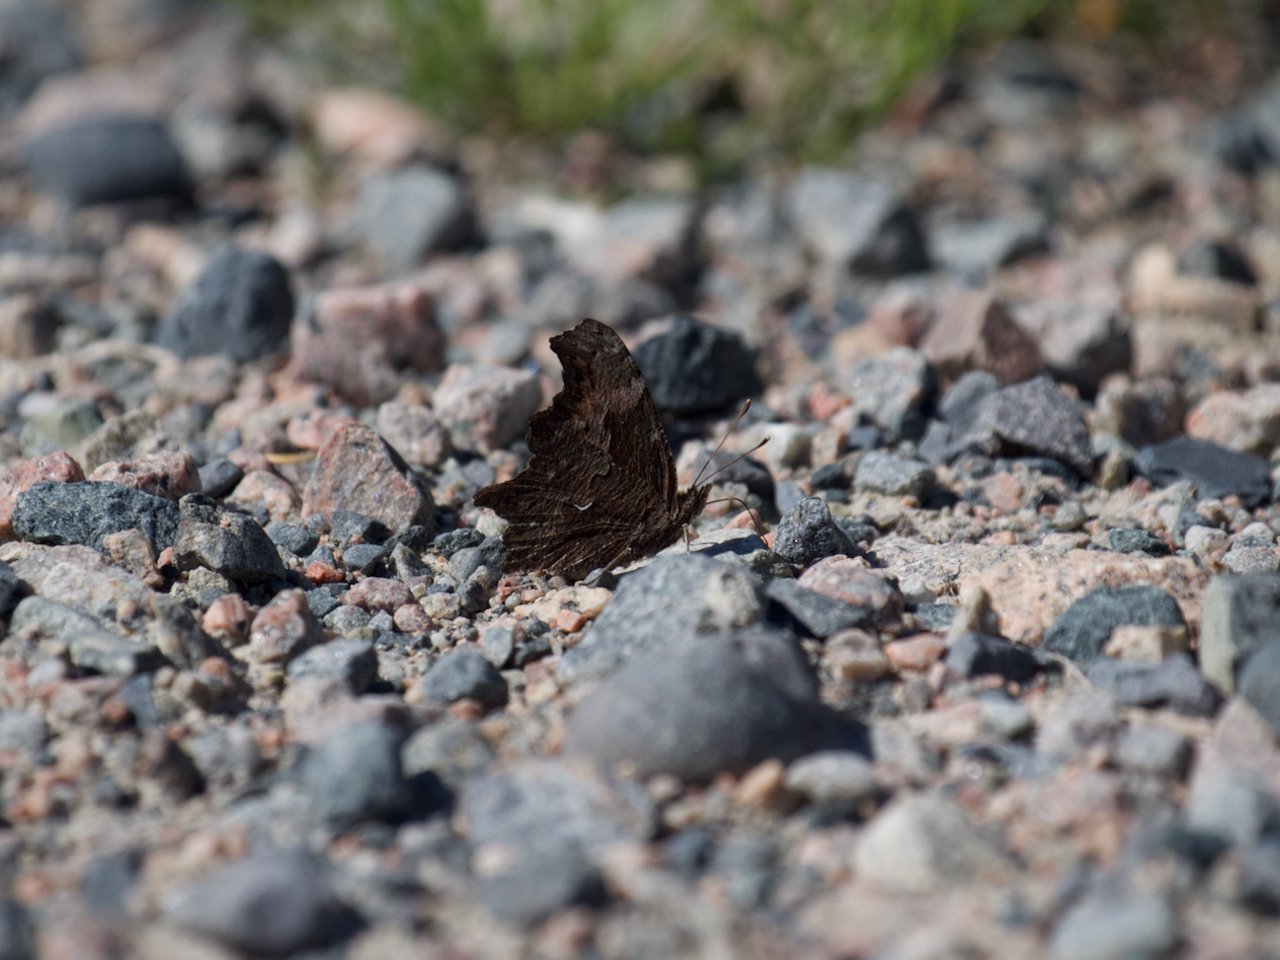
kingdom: Animalia
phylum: Arthropoda
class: Insecta
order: Lepidoptera
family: Nymphalidae
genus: Polygonia
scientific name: Polygonia progne
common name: Gray Comma
